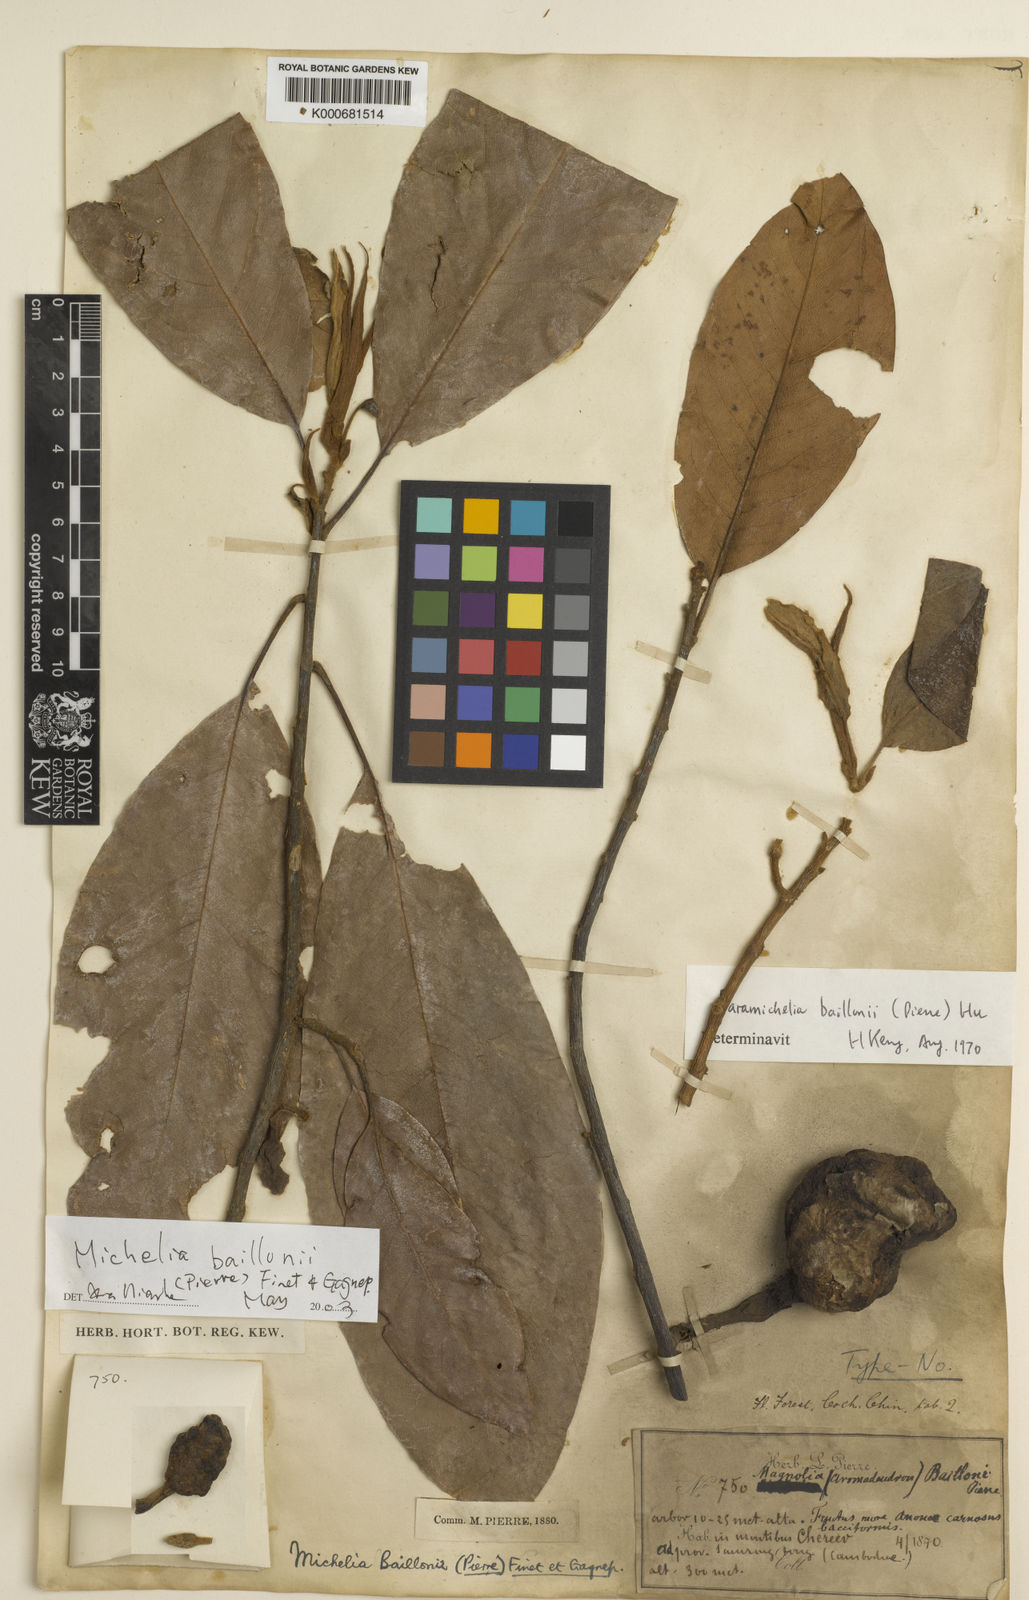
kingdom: Plantae
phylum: Tracheophyta
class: Magnoliopsida
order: Magnoliales
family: Magnoliaceae
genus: Magnolia
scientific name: Magnolia baillonii
